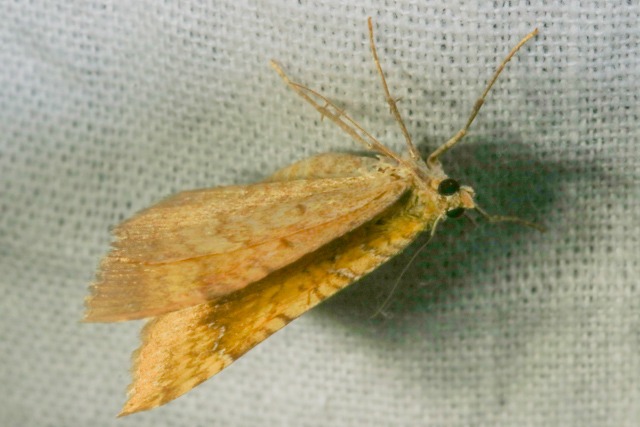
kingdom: Animalia
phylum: Arthropoda
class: Insecta
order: Lepidoptera
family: Geometridae
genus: Camptogramma
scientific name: Camptogramma bilineata
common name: Okkergul bladmåler
